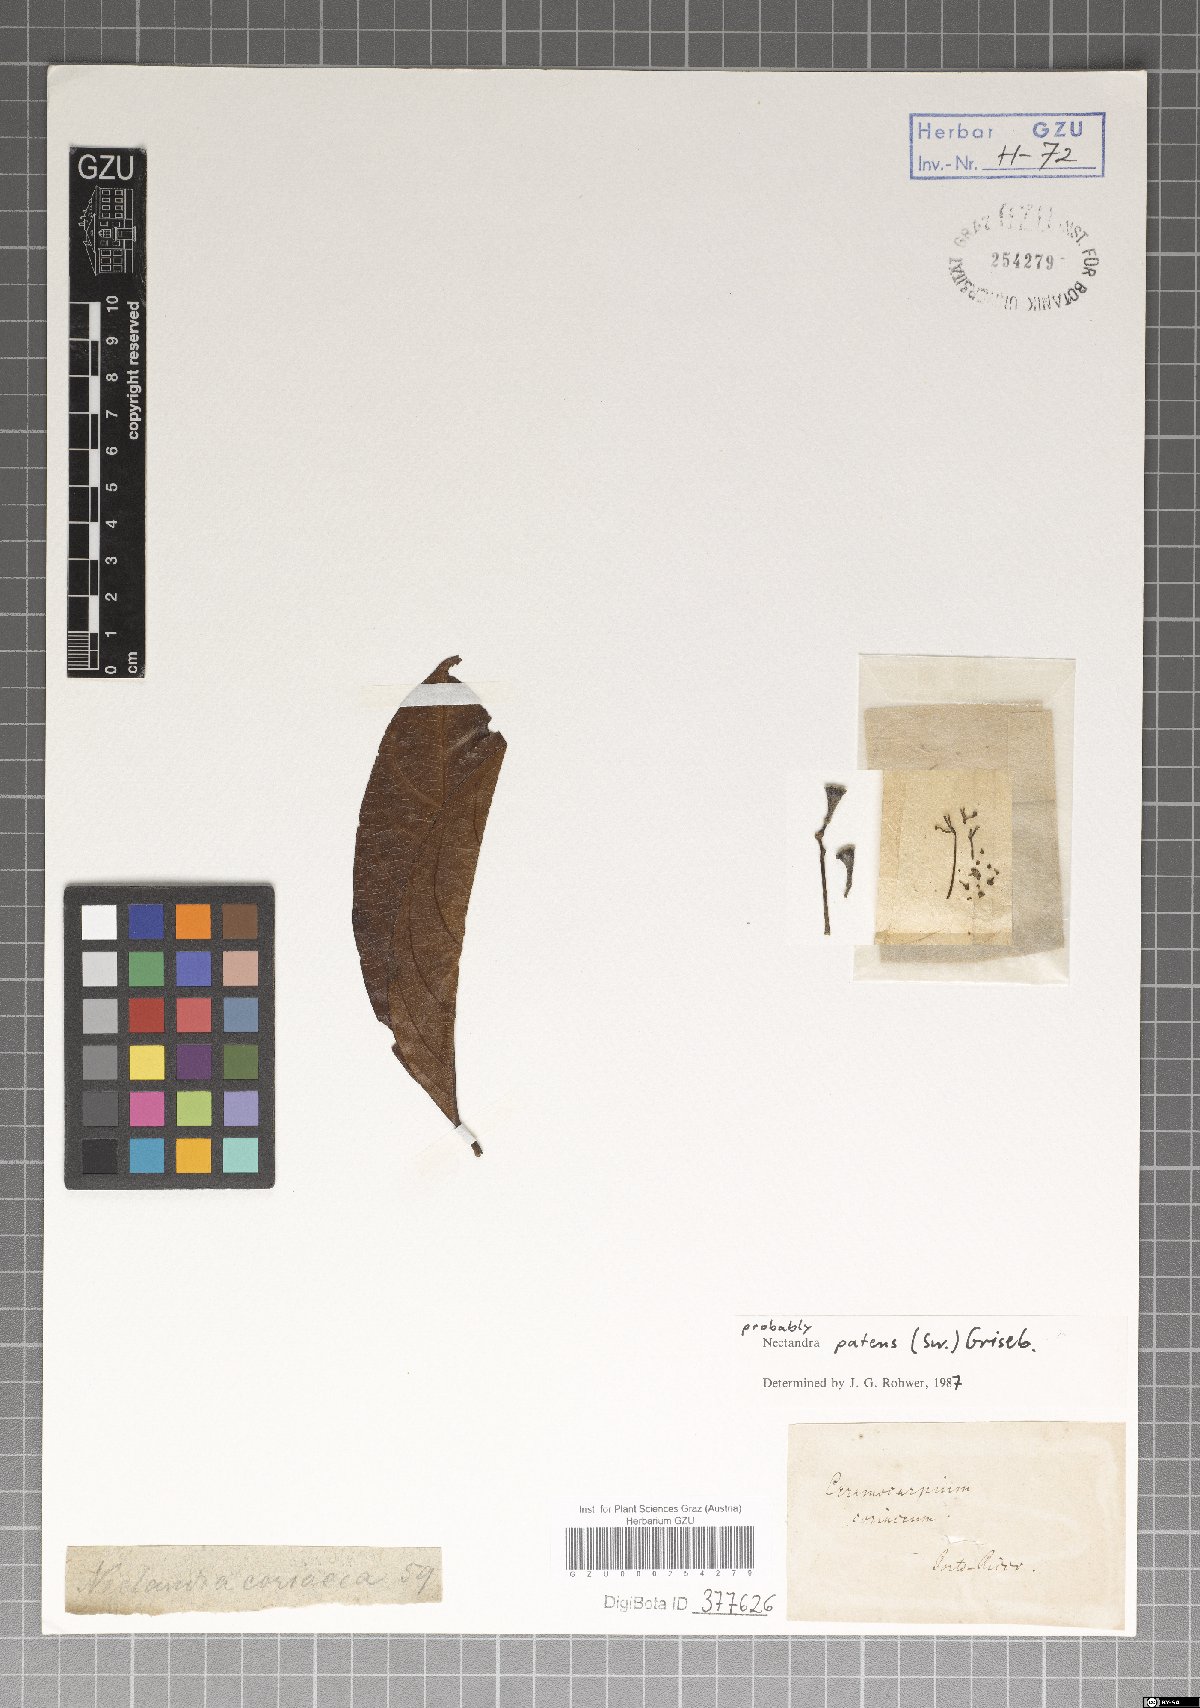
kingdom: Plantae
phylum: Tracheophyta
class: Magnoliopsida
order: Laurales
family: Lauraceae
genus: Damburneya
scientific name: Damburneya patens
